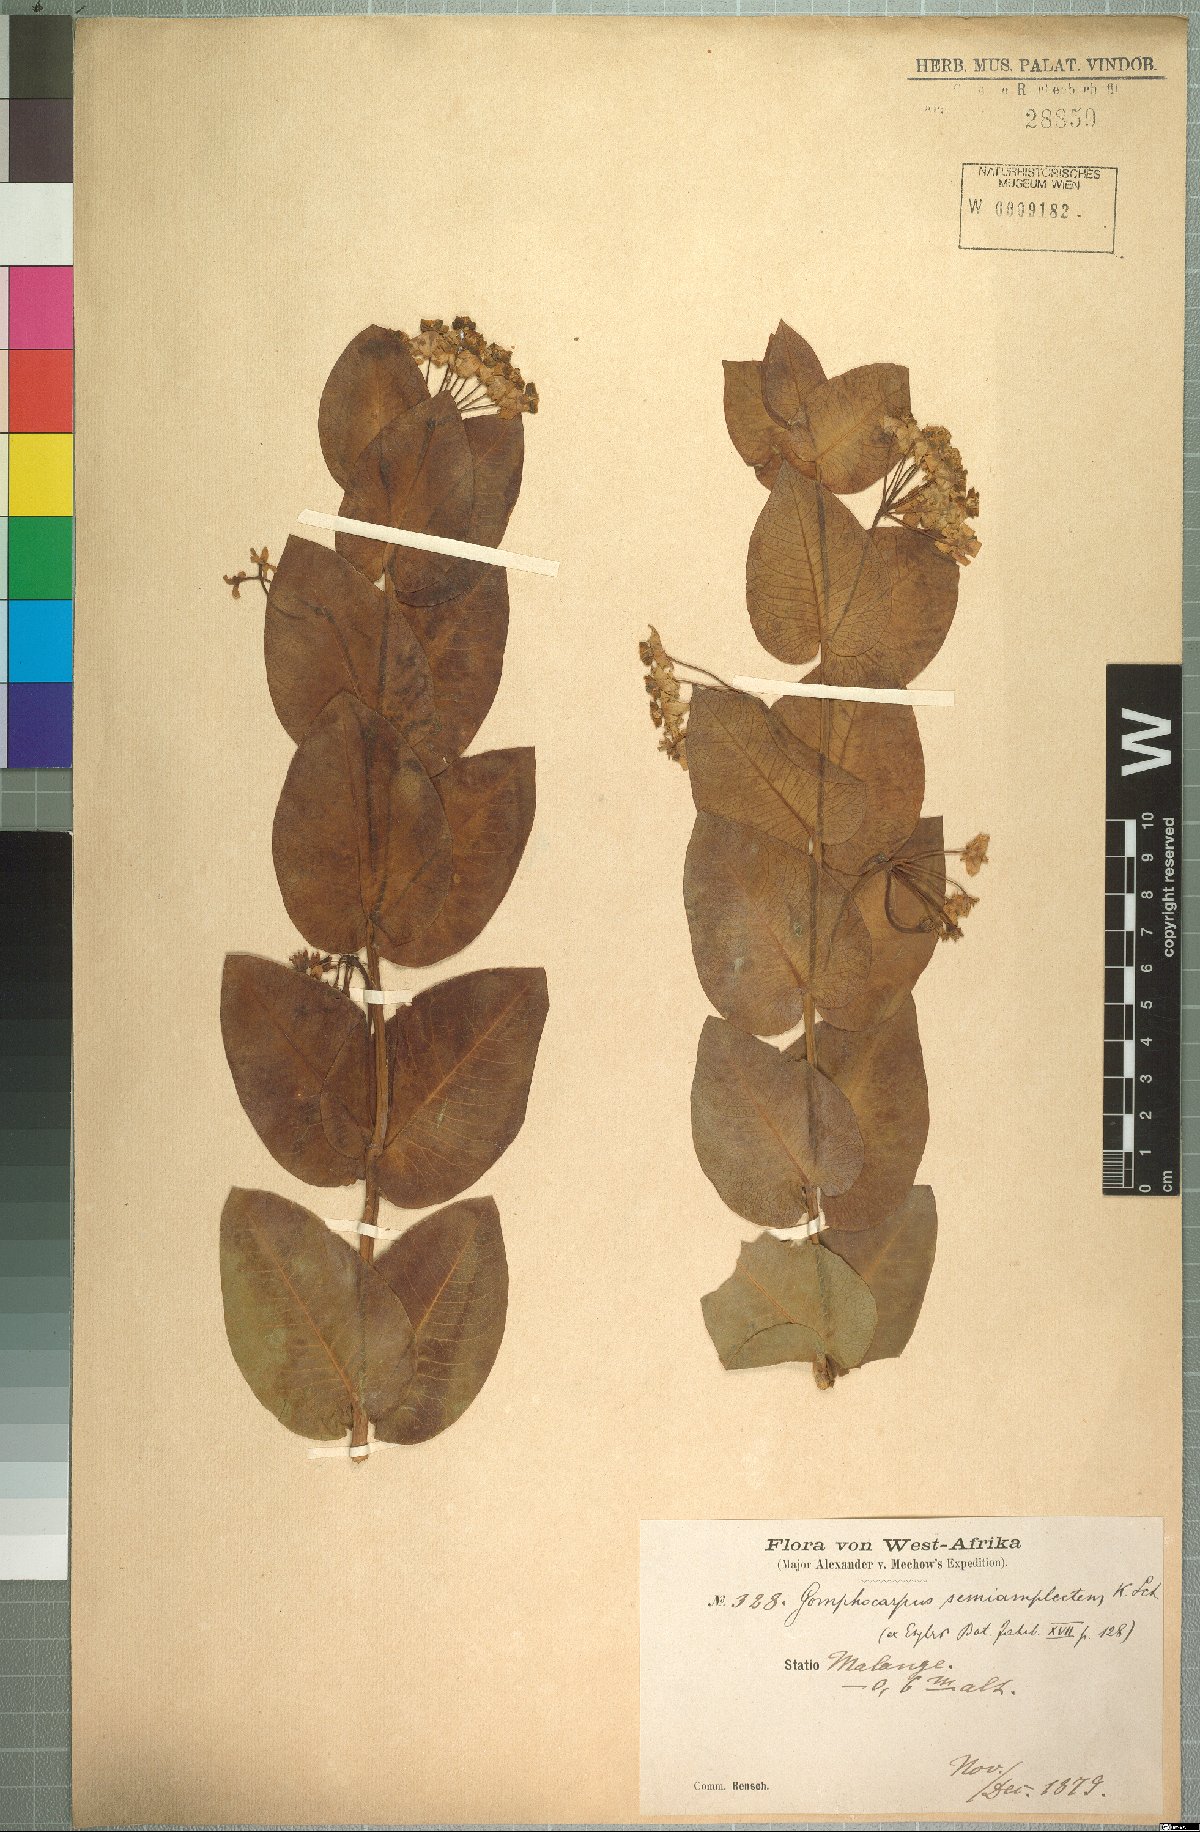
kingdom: Plantae
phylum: Tracheophyta
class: Magnoliopsida
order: Gentianales
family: Apocynaceae
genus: Gomphocarpus
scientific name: Gomphocarpus semiamplectens
